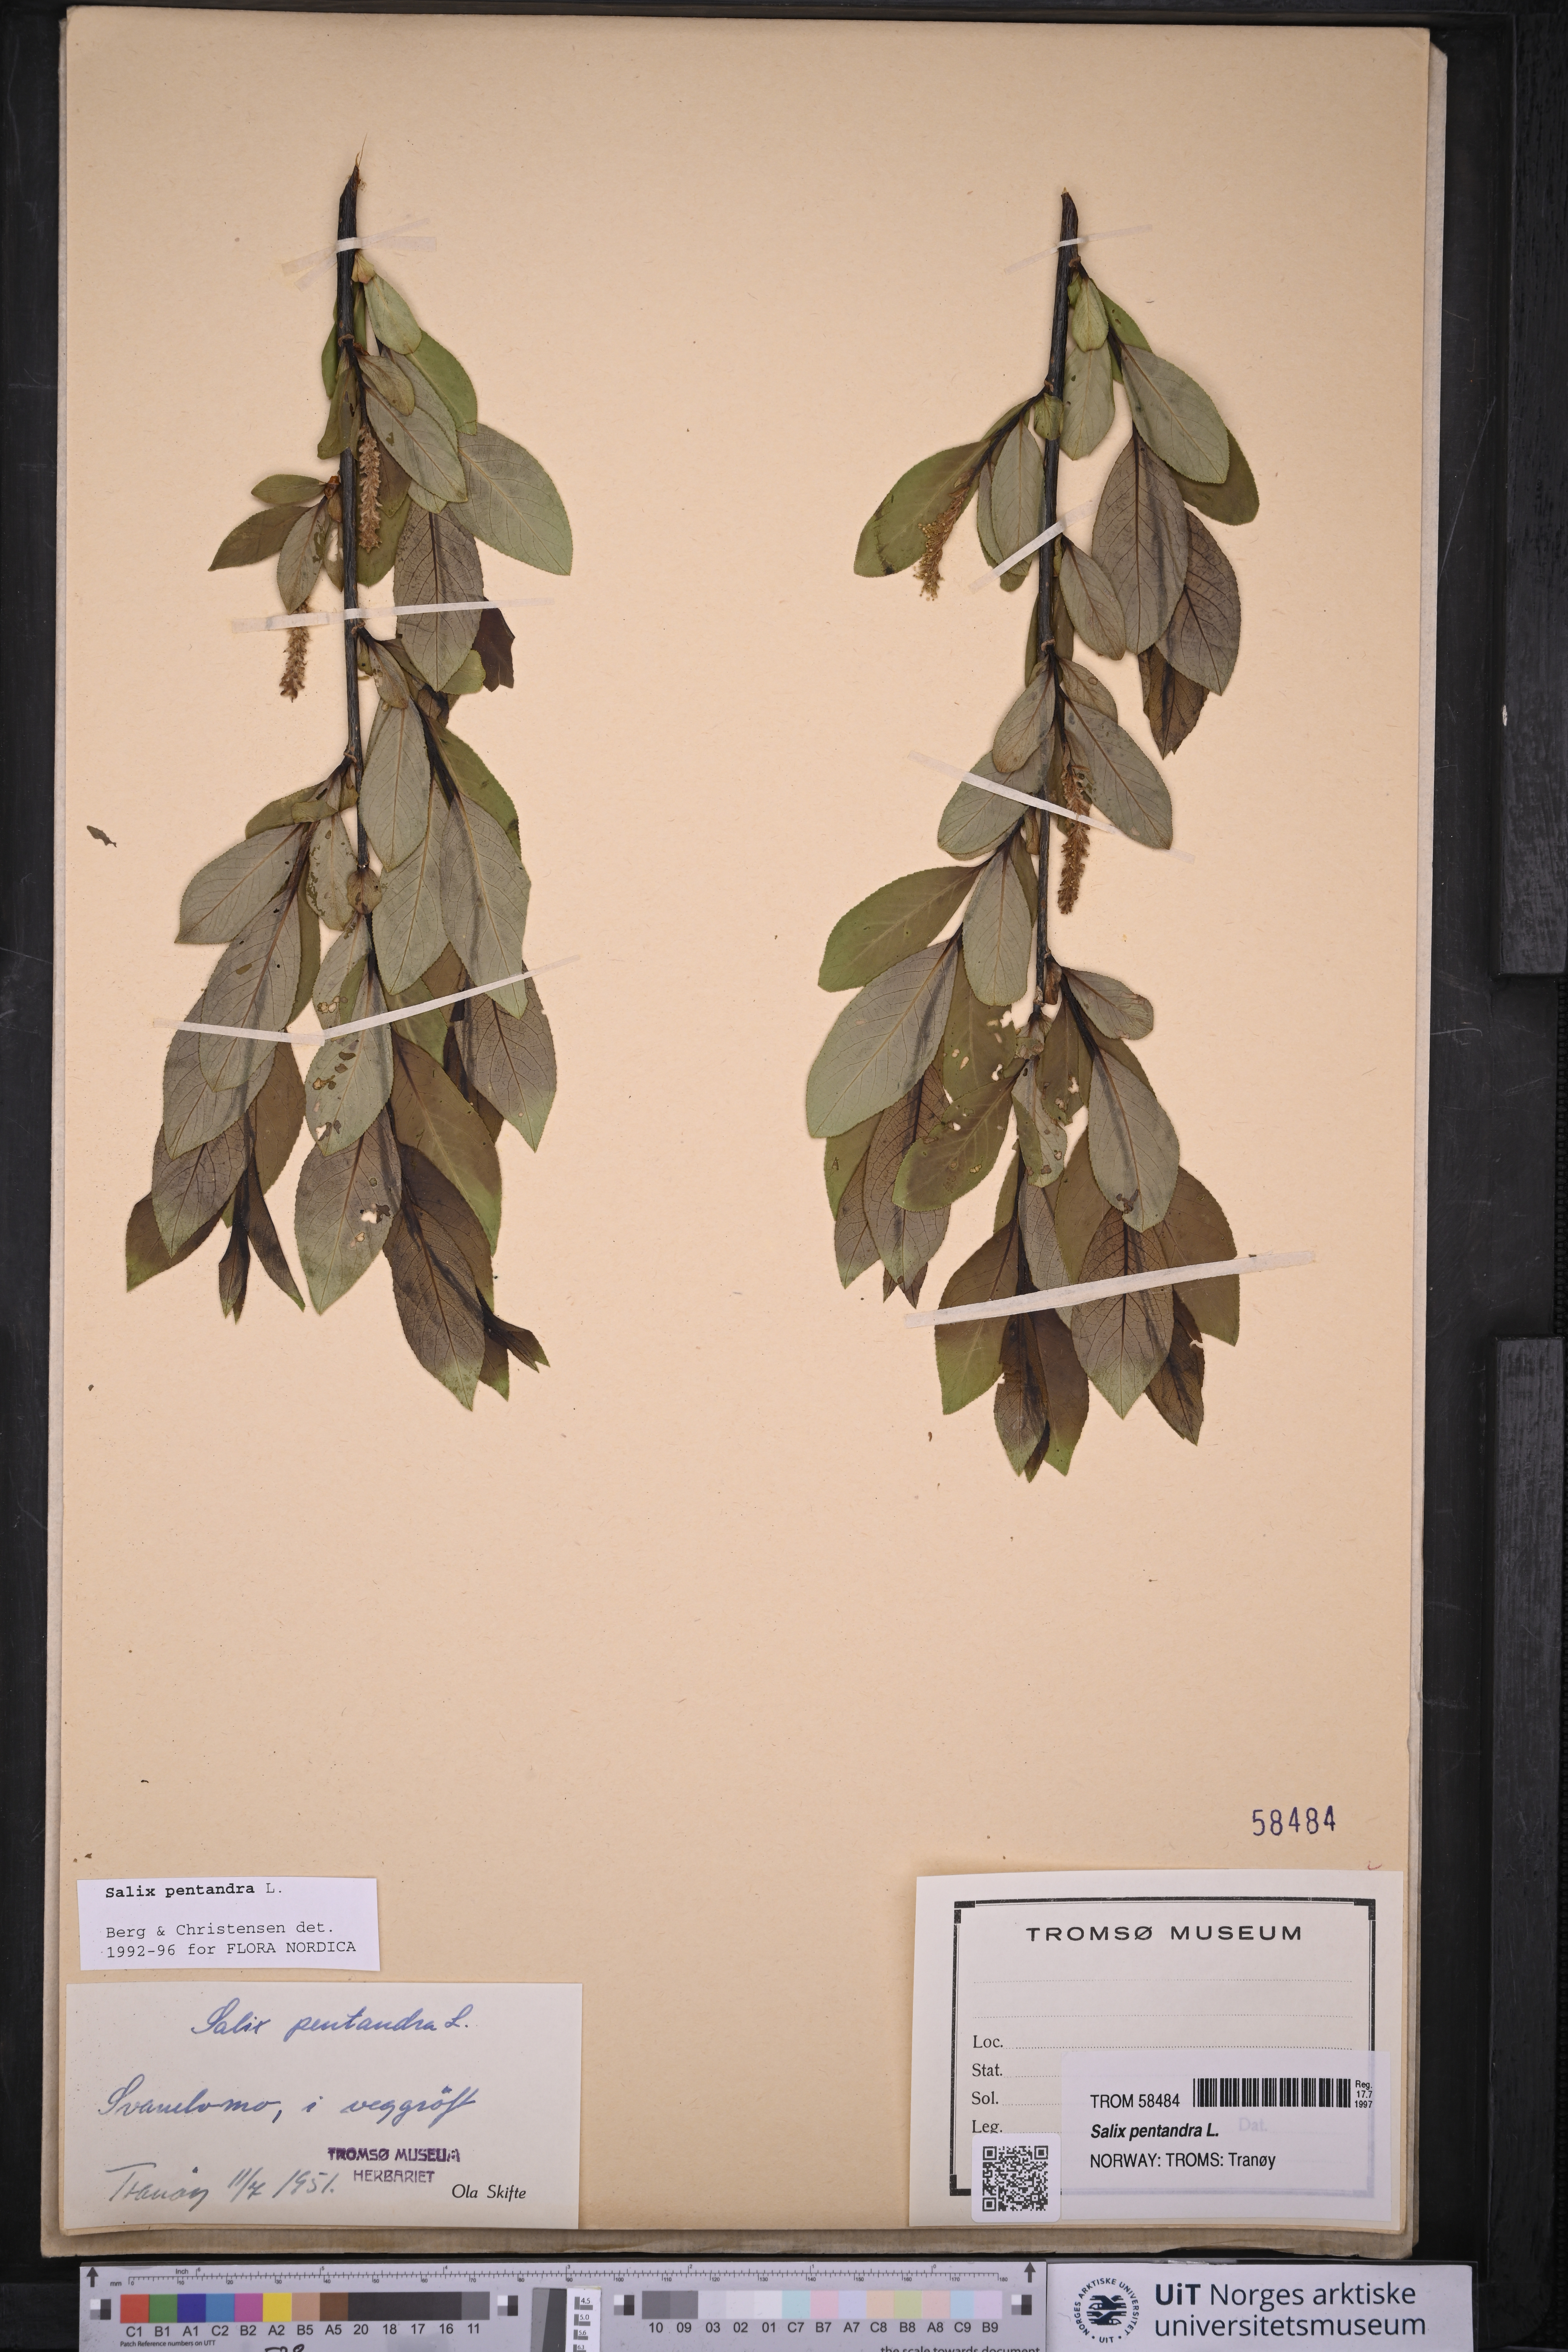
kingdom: Plantae
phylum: Tracheophyta
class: Magnoliopsida
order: Malpighiales
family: Salicaceae
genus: Salix
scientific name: Salix pentandra
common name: Bay willow
